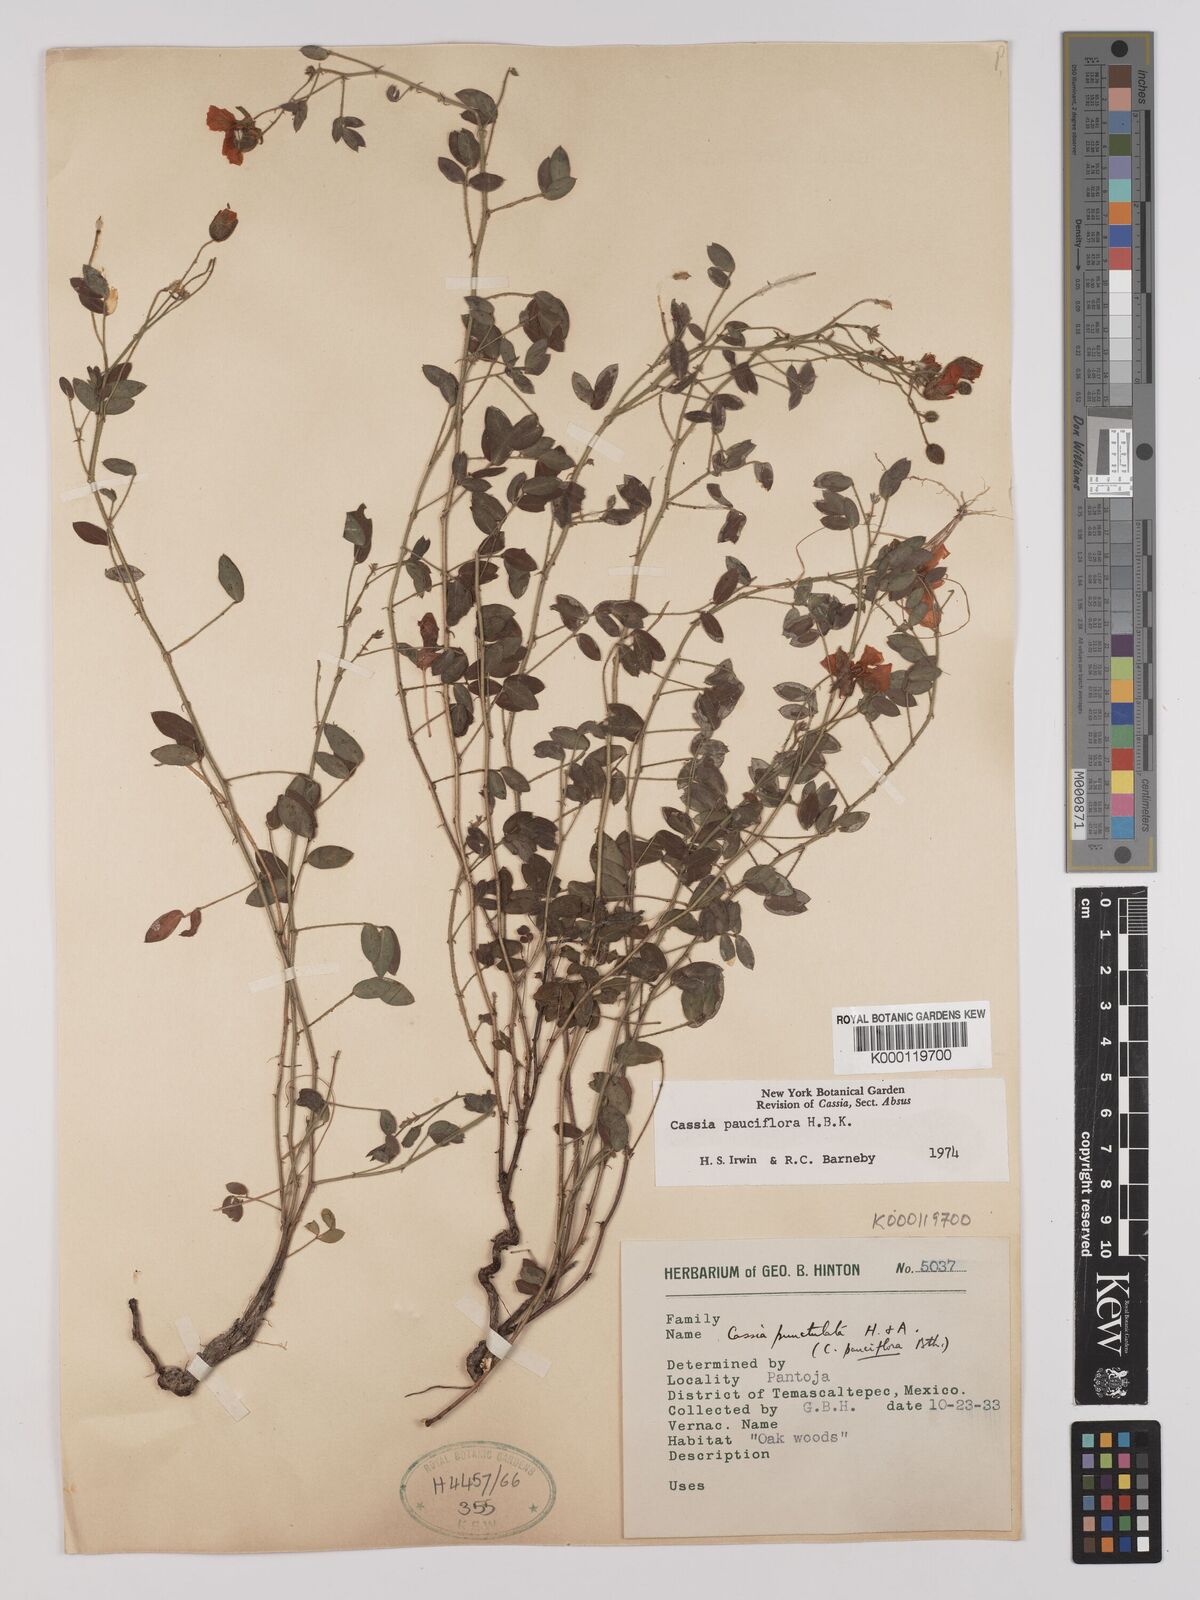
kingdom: Plantae
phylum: Tracheophyta
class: Magnoliopsida
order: Fabales
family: Fabaceae
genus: Chamaecrista
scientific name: Chamaecrista hispidula
